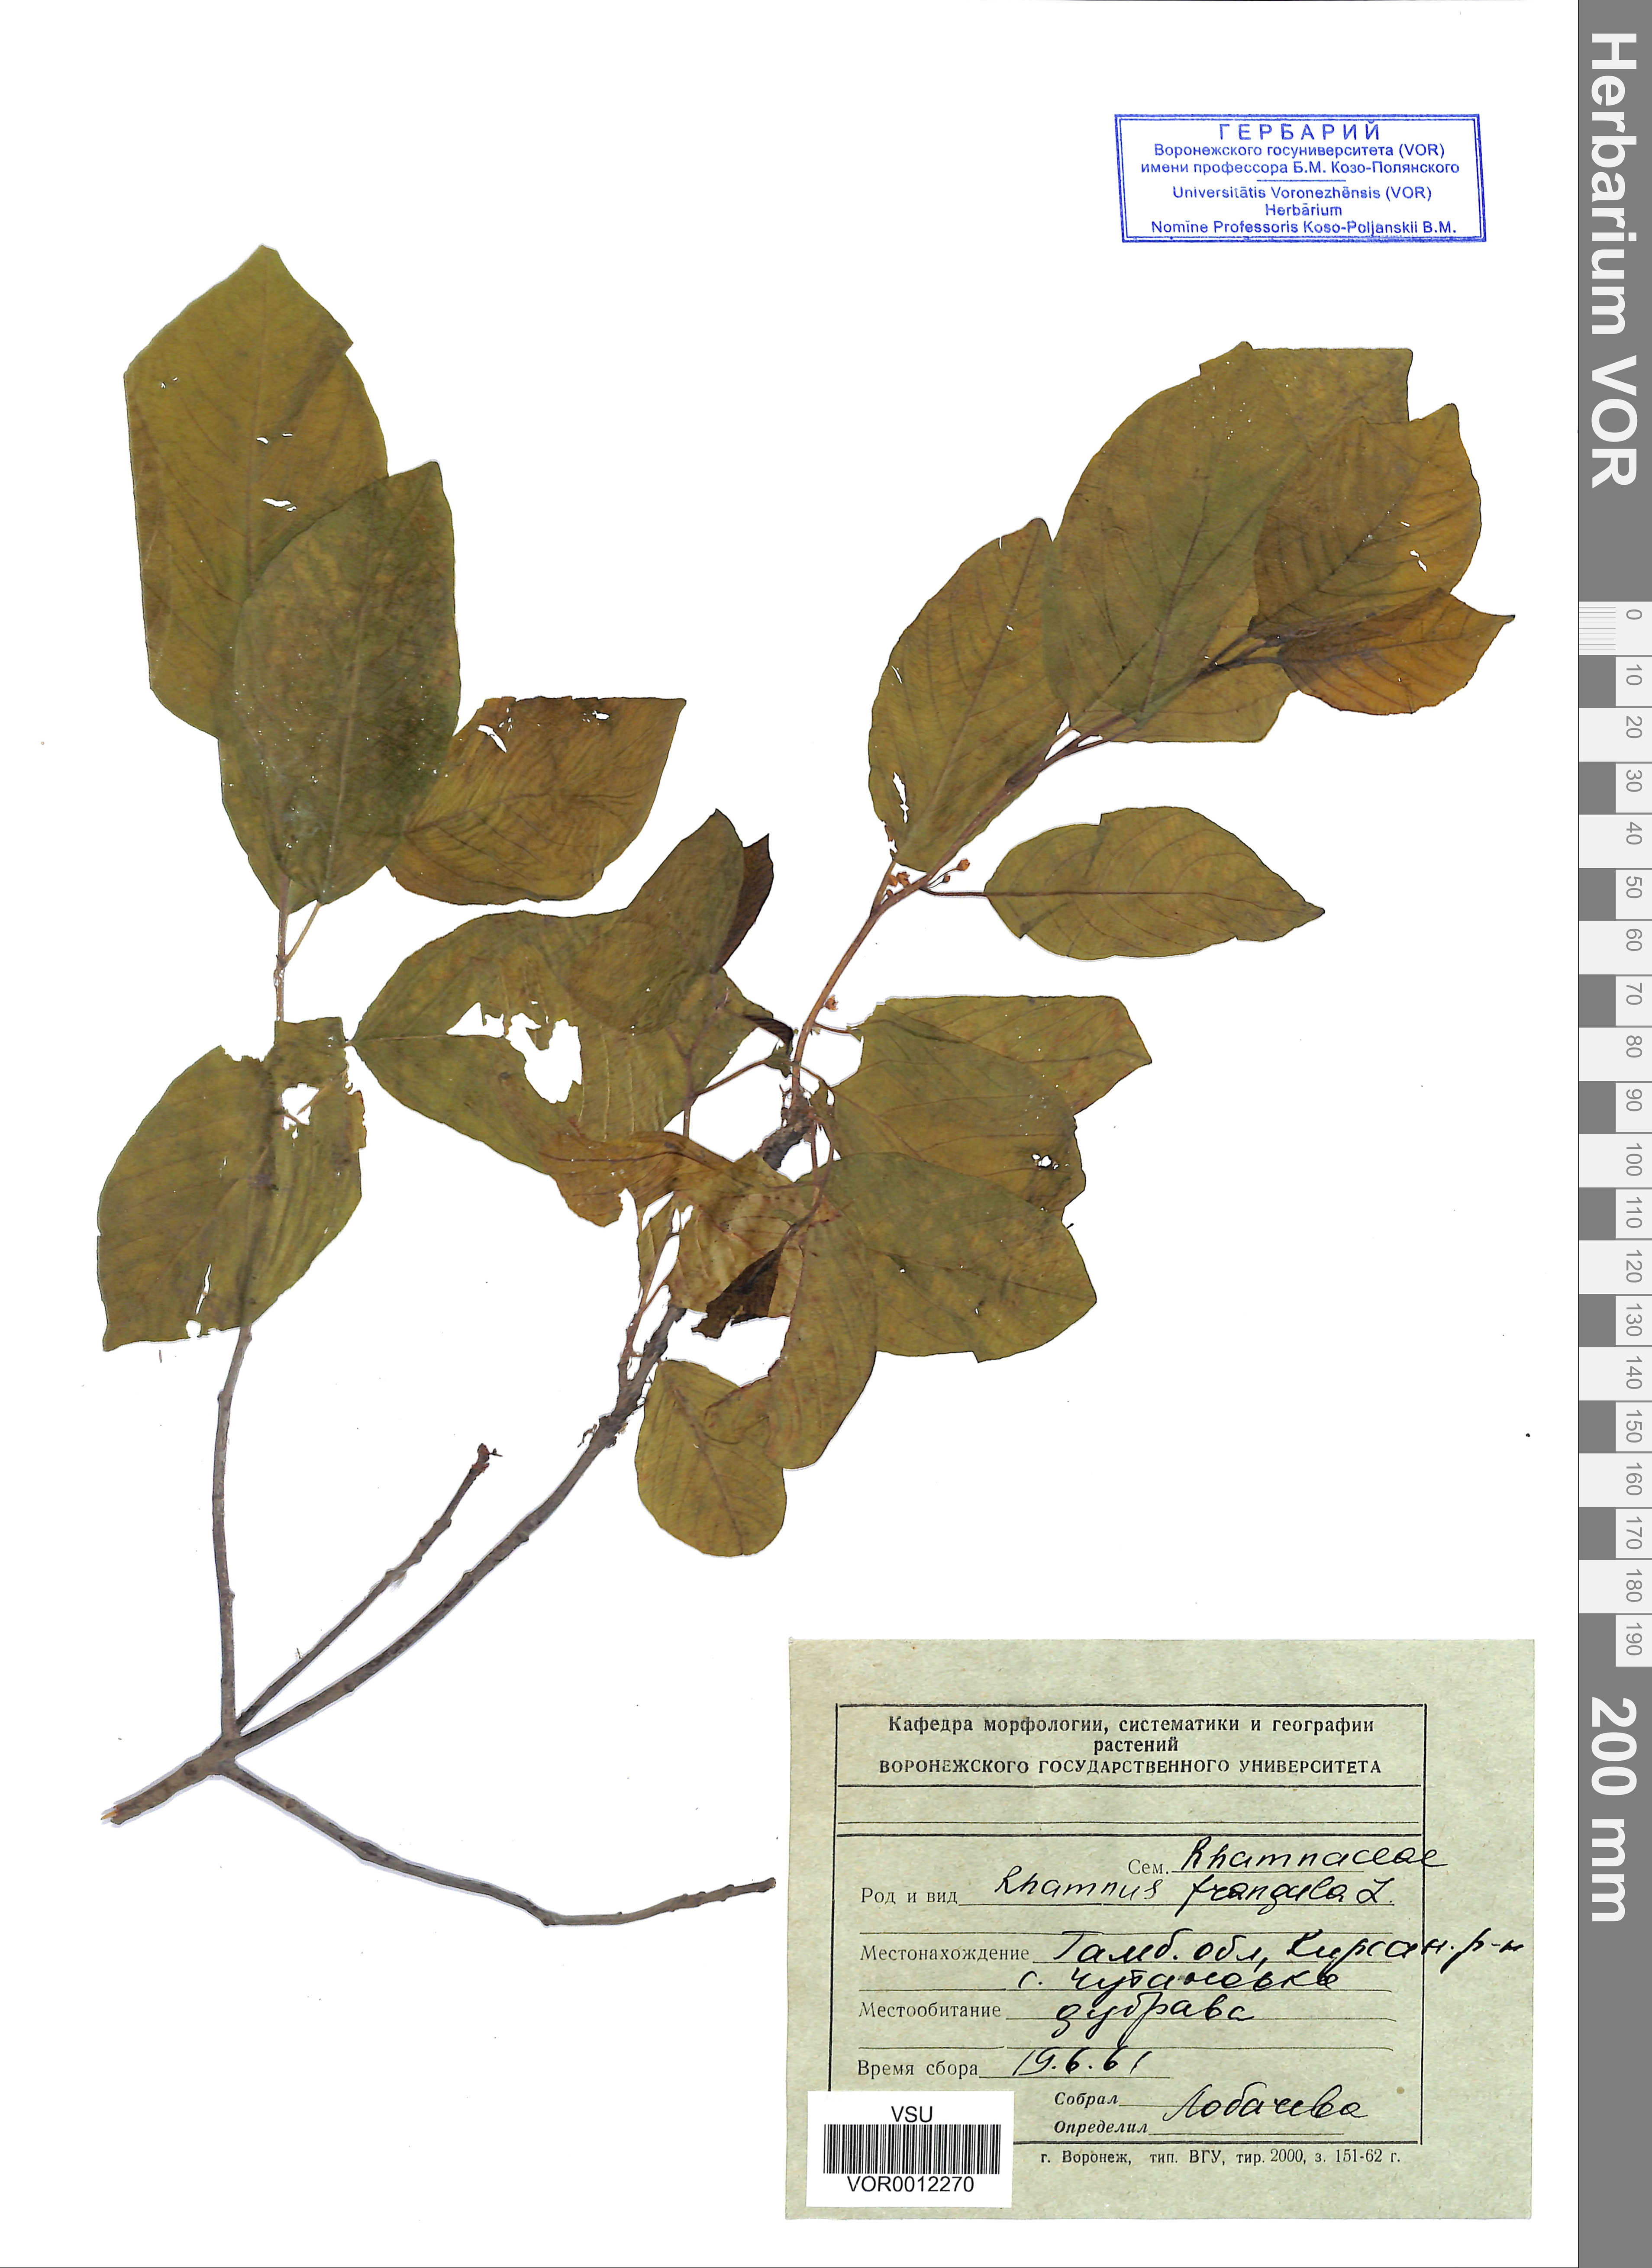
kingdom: Plantae
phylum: Tracheophyta
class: Magnoliopsida
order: Rosales
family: Rhamnaceae
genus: Frangula
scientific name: Frangula alnus
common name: Alder buckthorn
